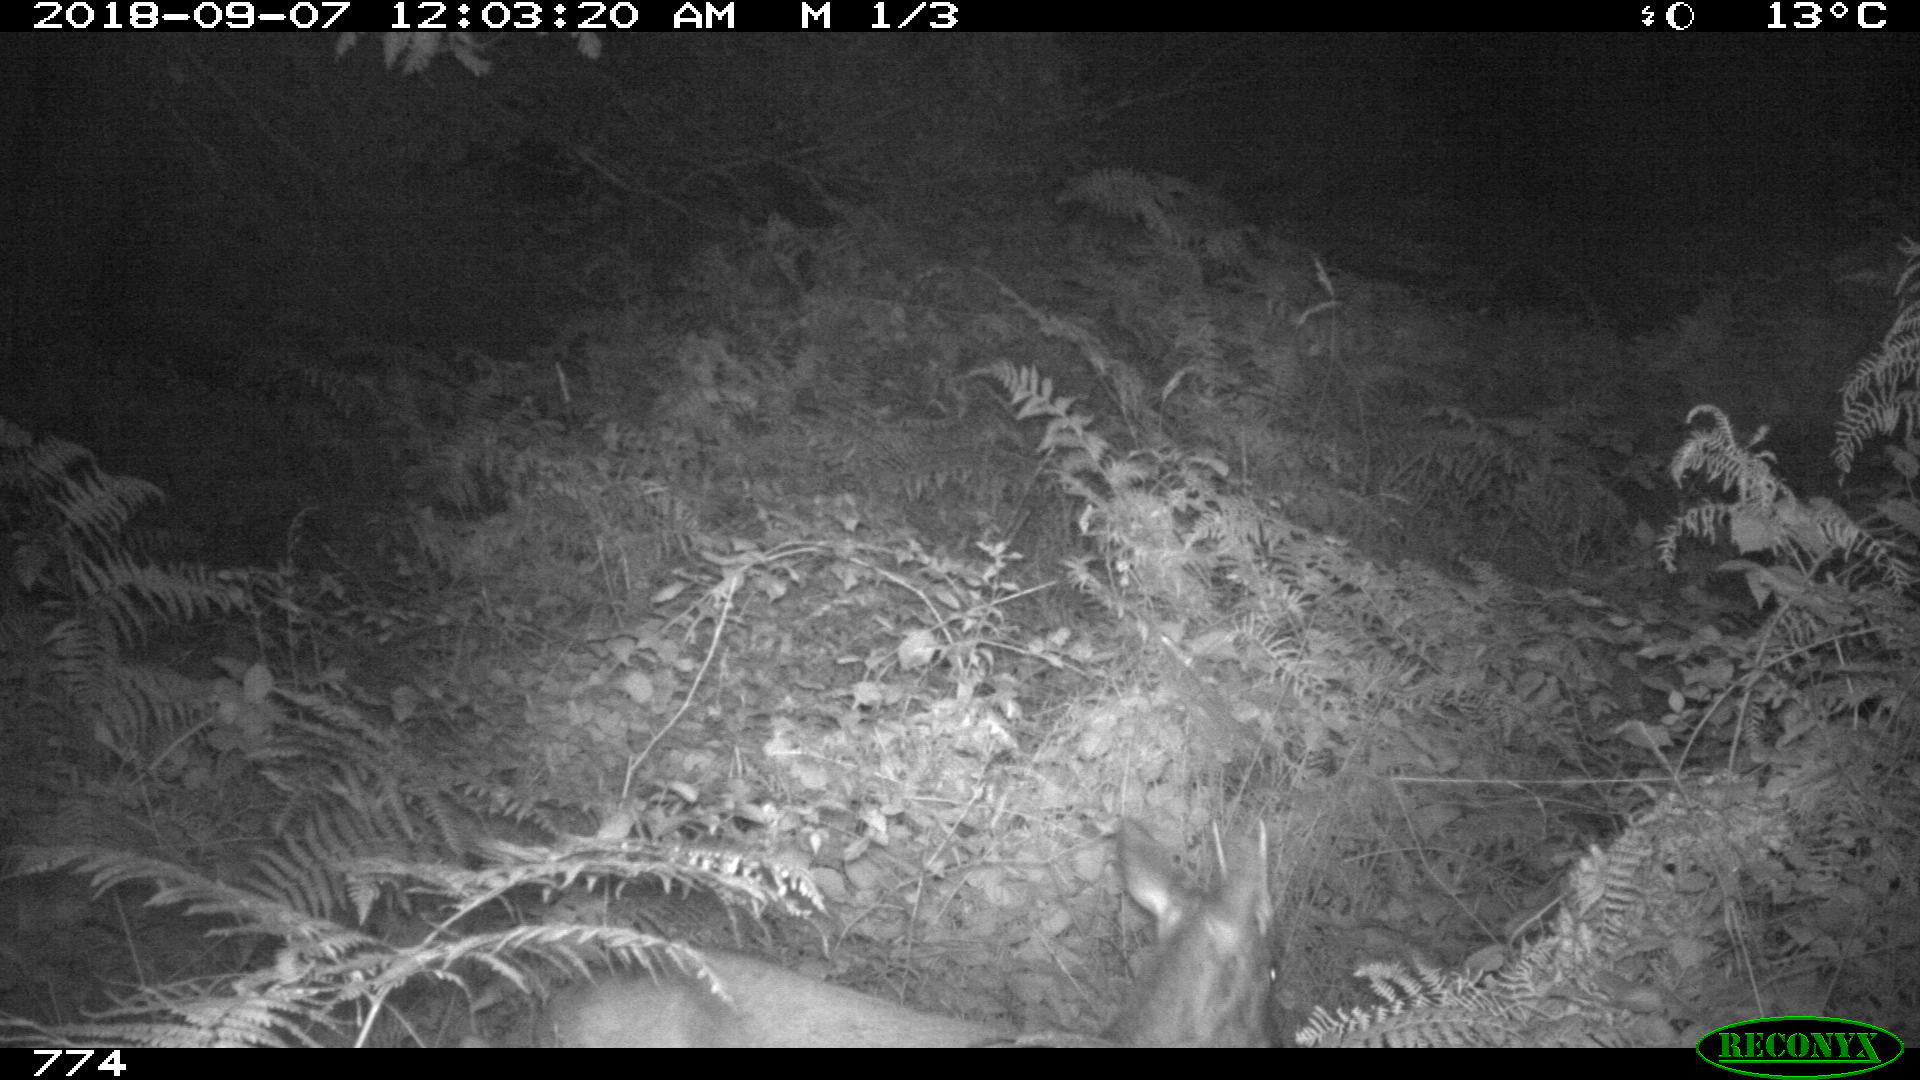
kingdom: Animalia
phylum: Chordata
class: Mammalia
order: Artiodactyla
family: Cervidae
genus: Capreolus
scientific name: Capreolus capreolus
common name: Western roe deer
